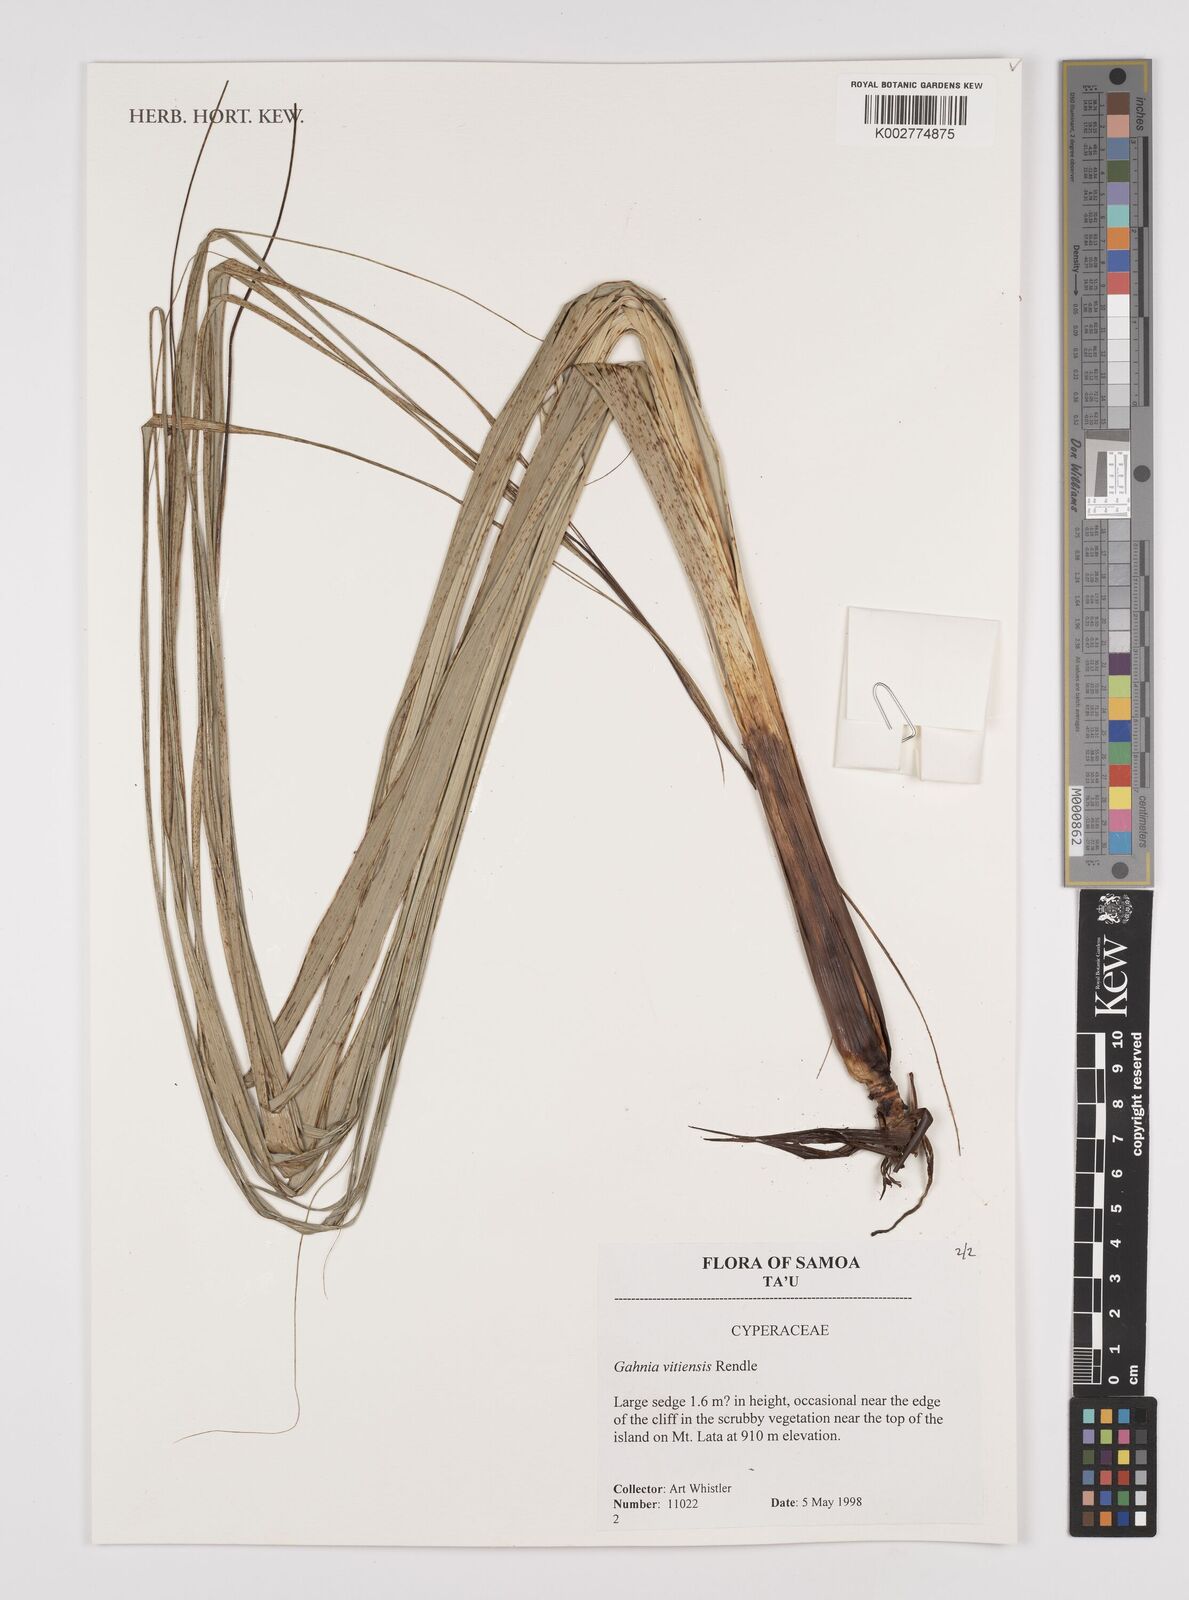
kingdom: Plantae
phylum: Tracheophyta
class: Liliopsida
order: Poales
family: Cyperaceae
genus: Gahnia
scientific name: Gahnia vitiensis
